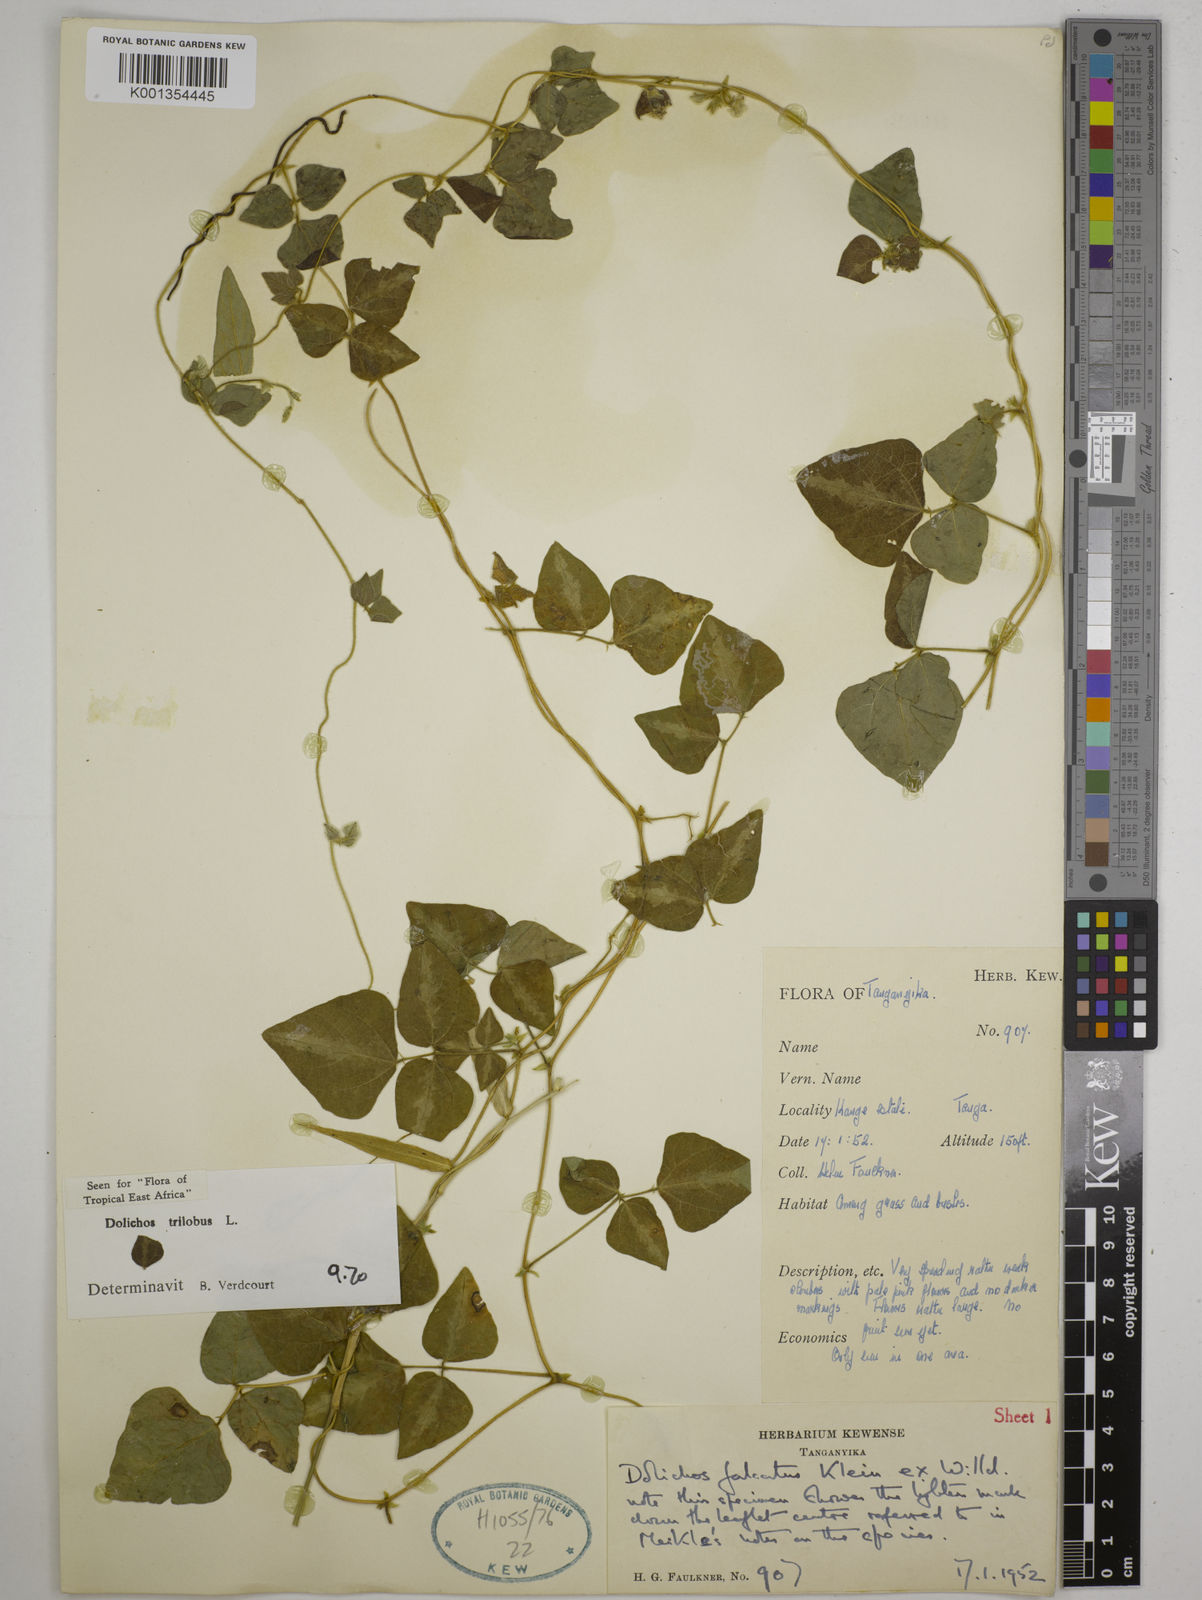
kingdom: Plantae
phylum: Tracheophyta
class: Magnoliopsida
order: Fabales
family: Fabaceae
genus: Dolichos
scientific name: Dolichos
